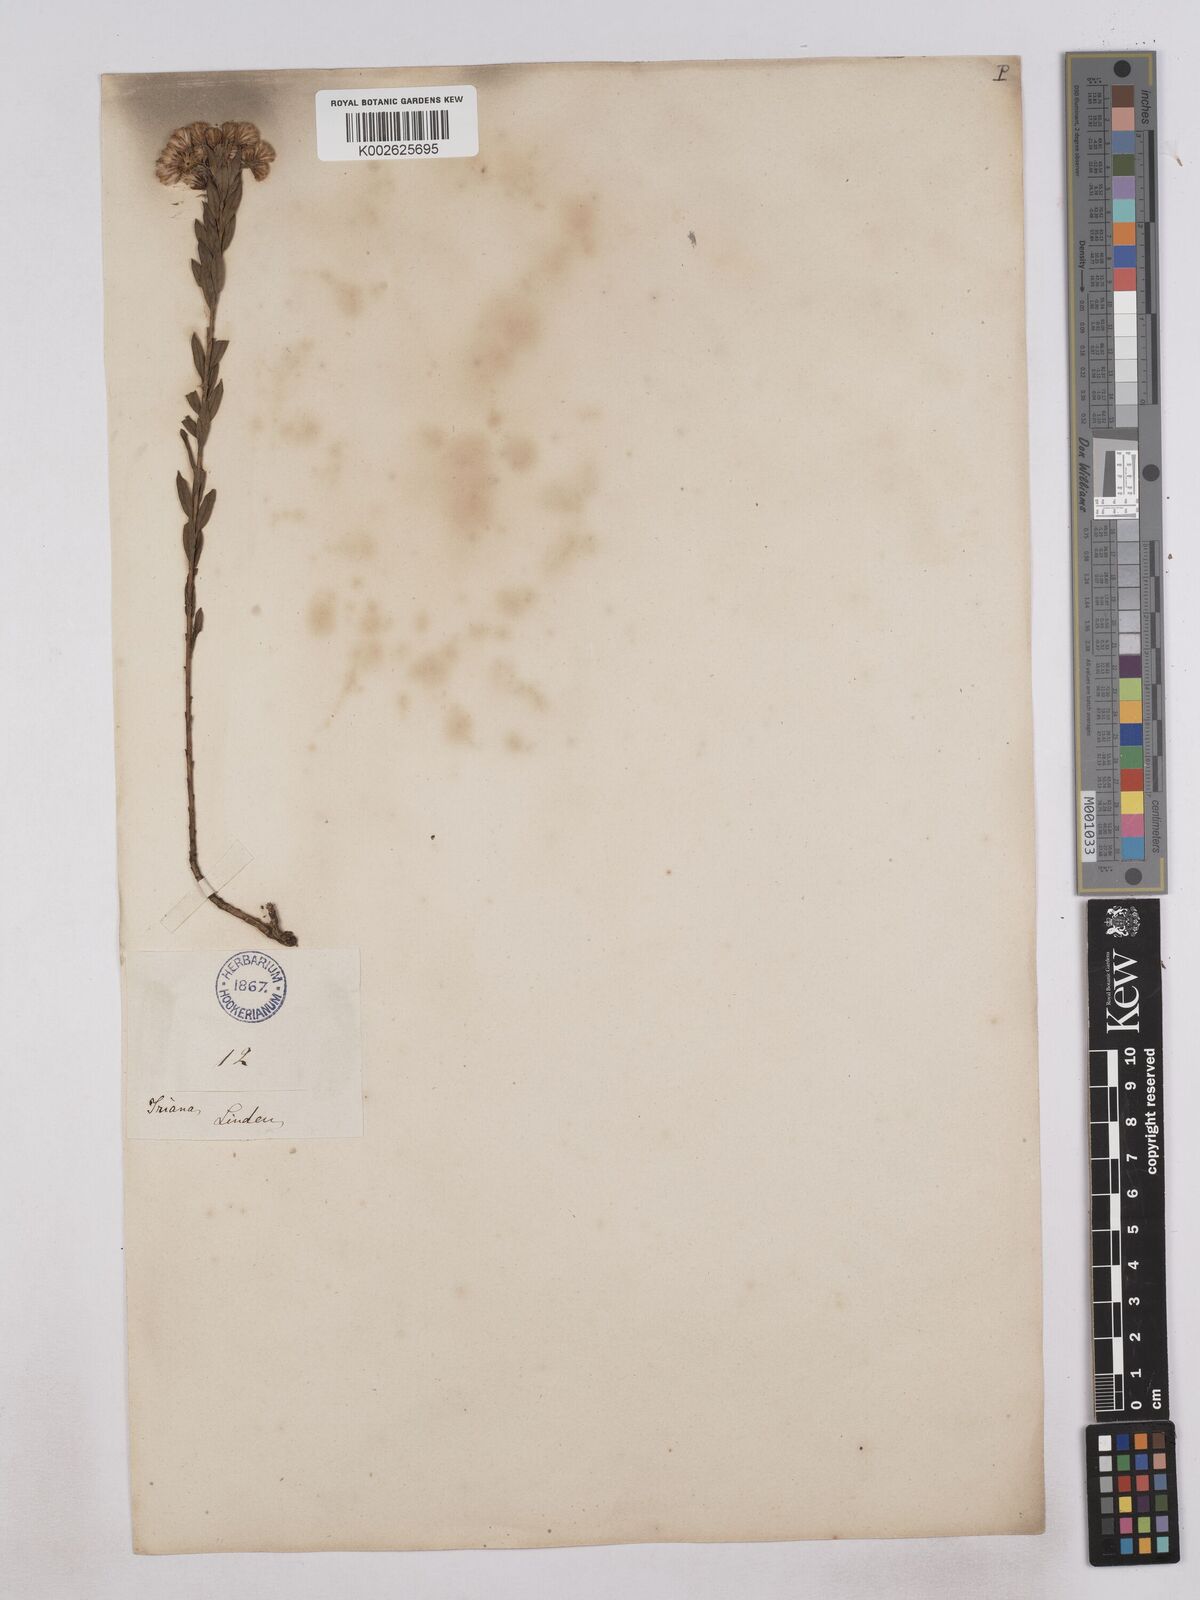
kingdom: Plantae
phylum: Tracheophyta
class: Magnoliopsida
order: Asterales
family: Asteraceae
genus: Monticalia
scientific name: Monticalia corymbosa
